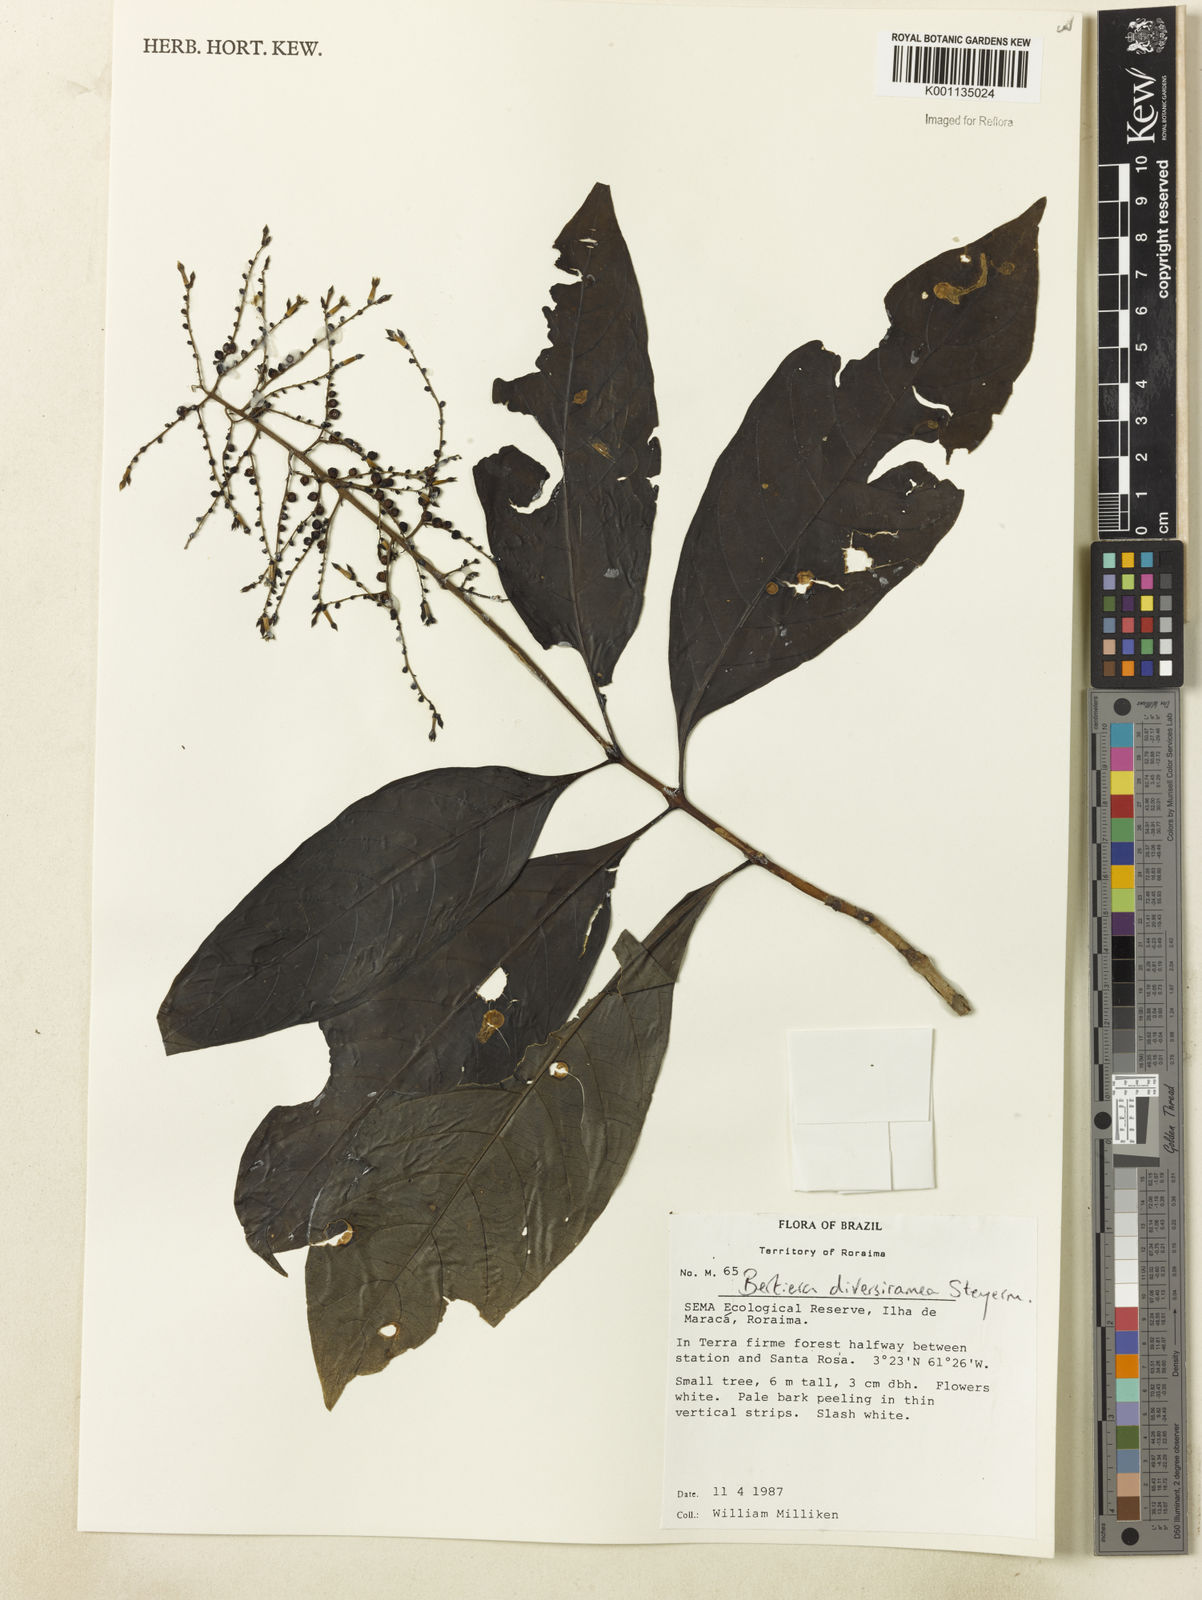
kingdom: Plantae
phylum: Tracheophyta
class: Magnoliopsida
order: Gentianales
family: Rubiaceae
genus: Bertiera
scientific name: Bertiera guianensis
